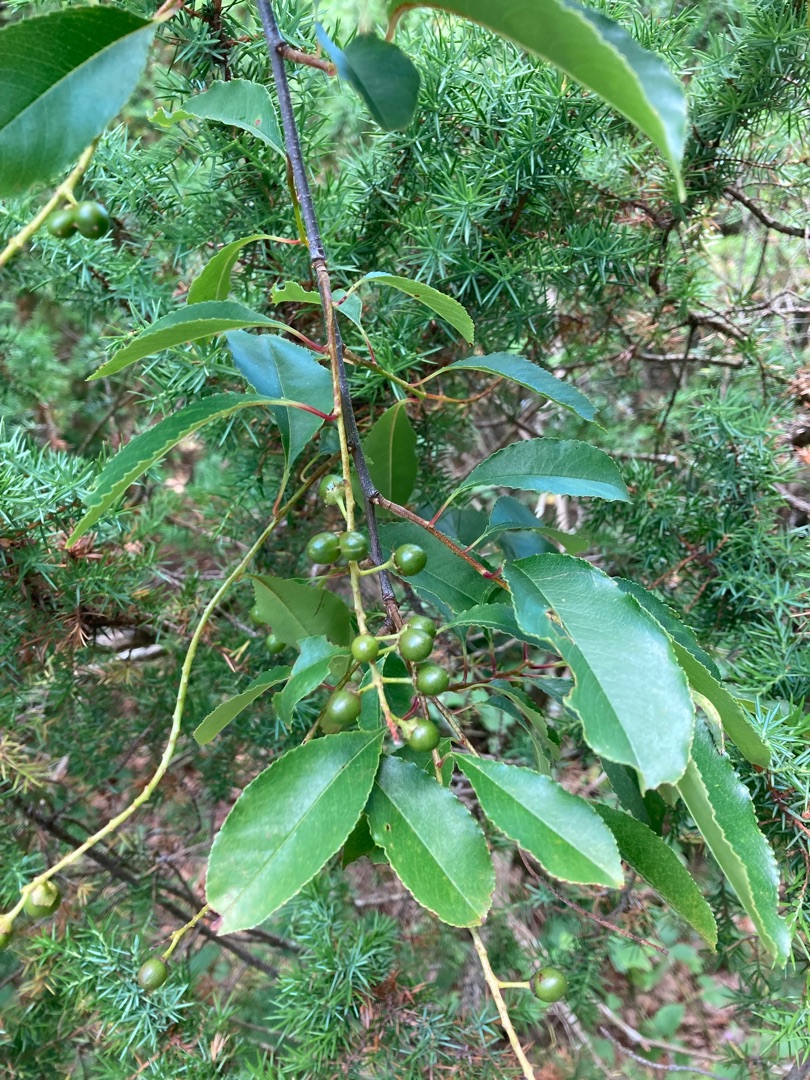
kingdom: Plantae
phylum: Tracheophyta
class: Magnoliopsida
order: Rosales
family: Rosaceae
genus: Prunus
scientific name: Prunus serotina
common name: Glansbladet hæg
